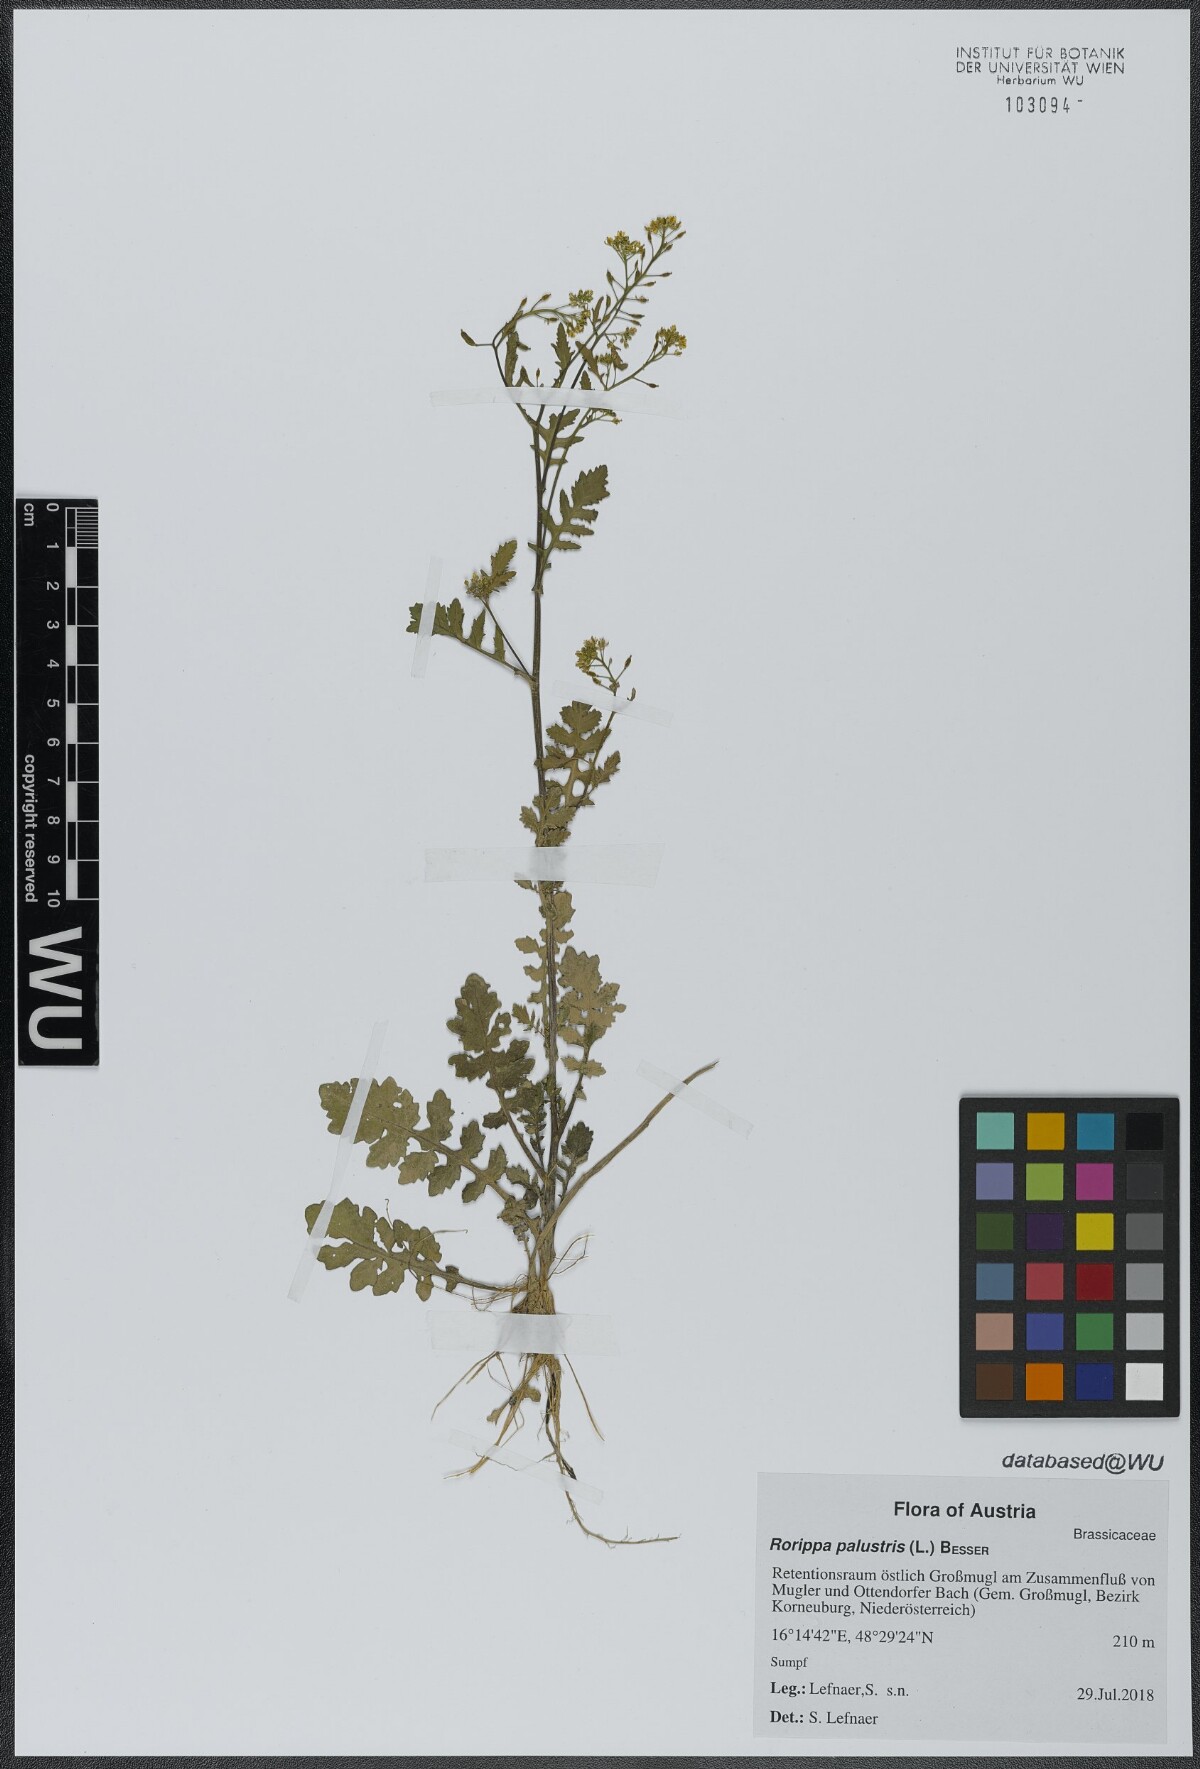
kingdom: Plantae
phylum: Tracheophyta
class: Magnoliopsida
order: Brassicales
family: Brassicaceae
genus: Rorippa
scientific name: Rorippa palustris
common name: Marsh yellow-cress
